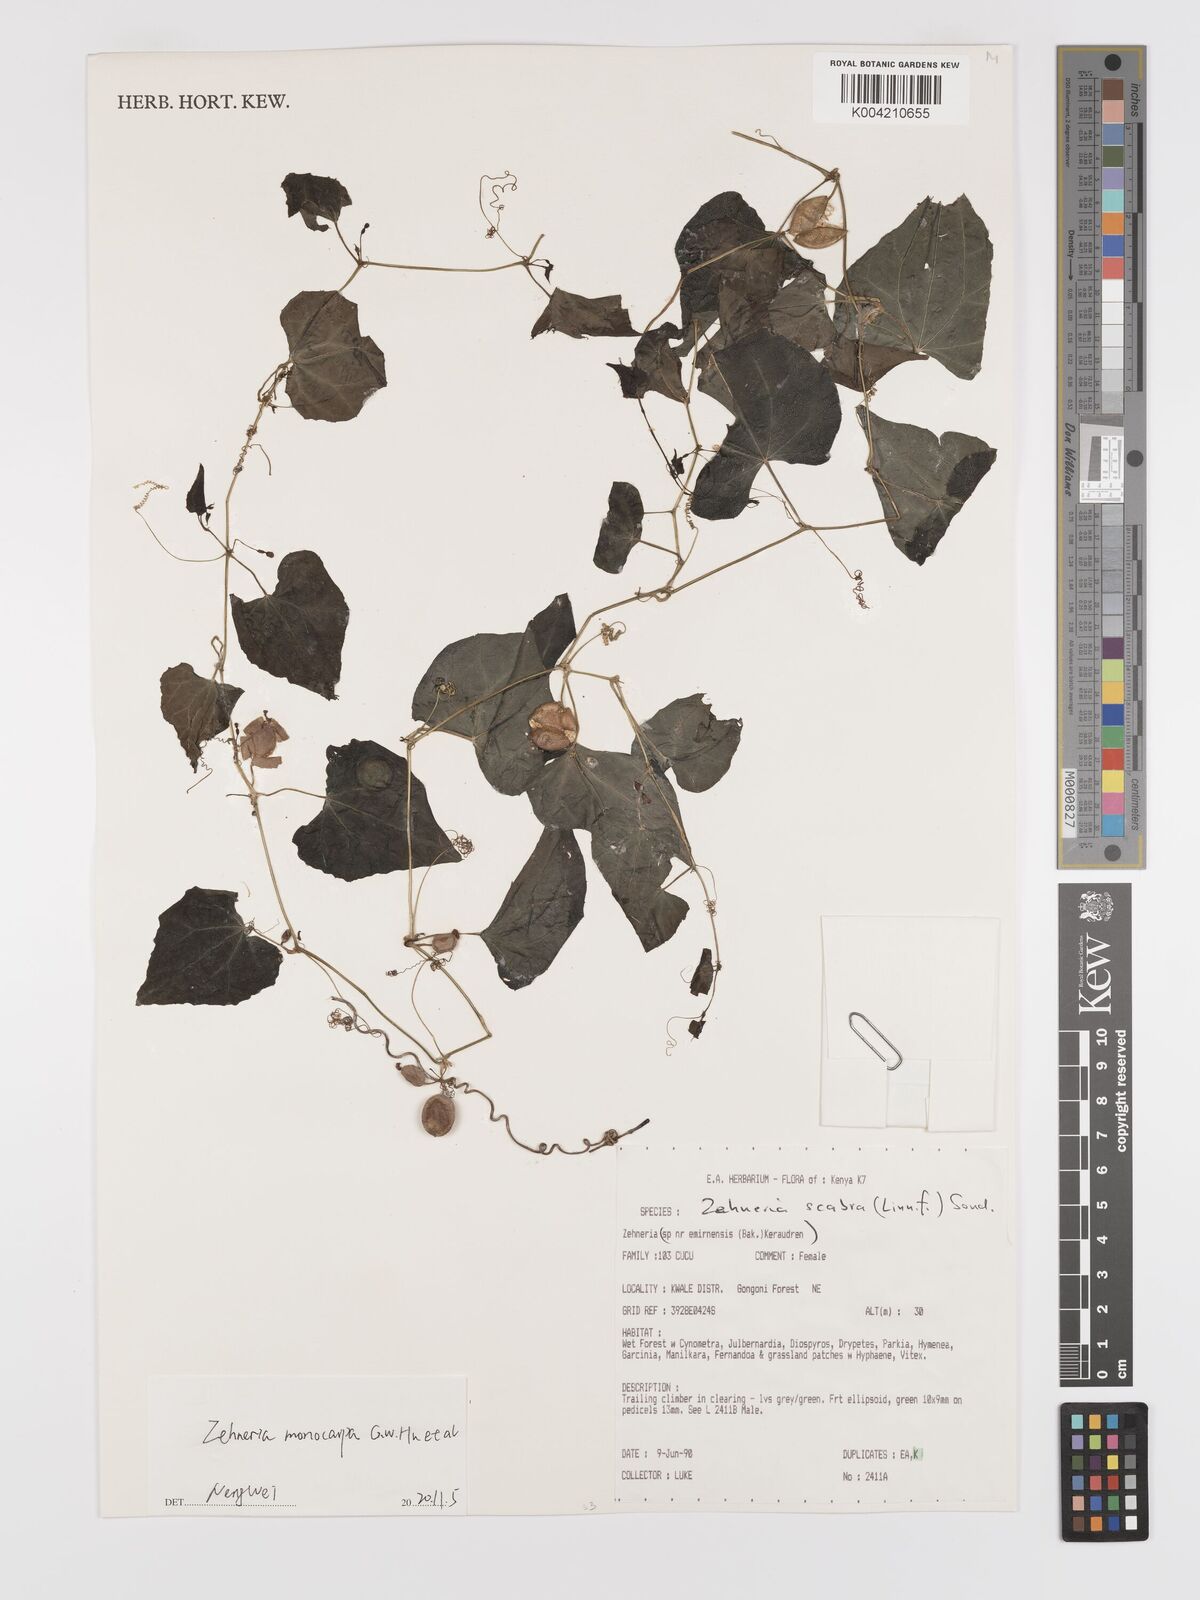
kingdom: Plantae
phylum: Tracheophyta
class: Magnoliopsida
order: Cucurbitales
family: Cucurbitaceae
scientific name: Cucurbitaceae
